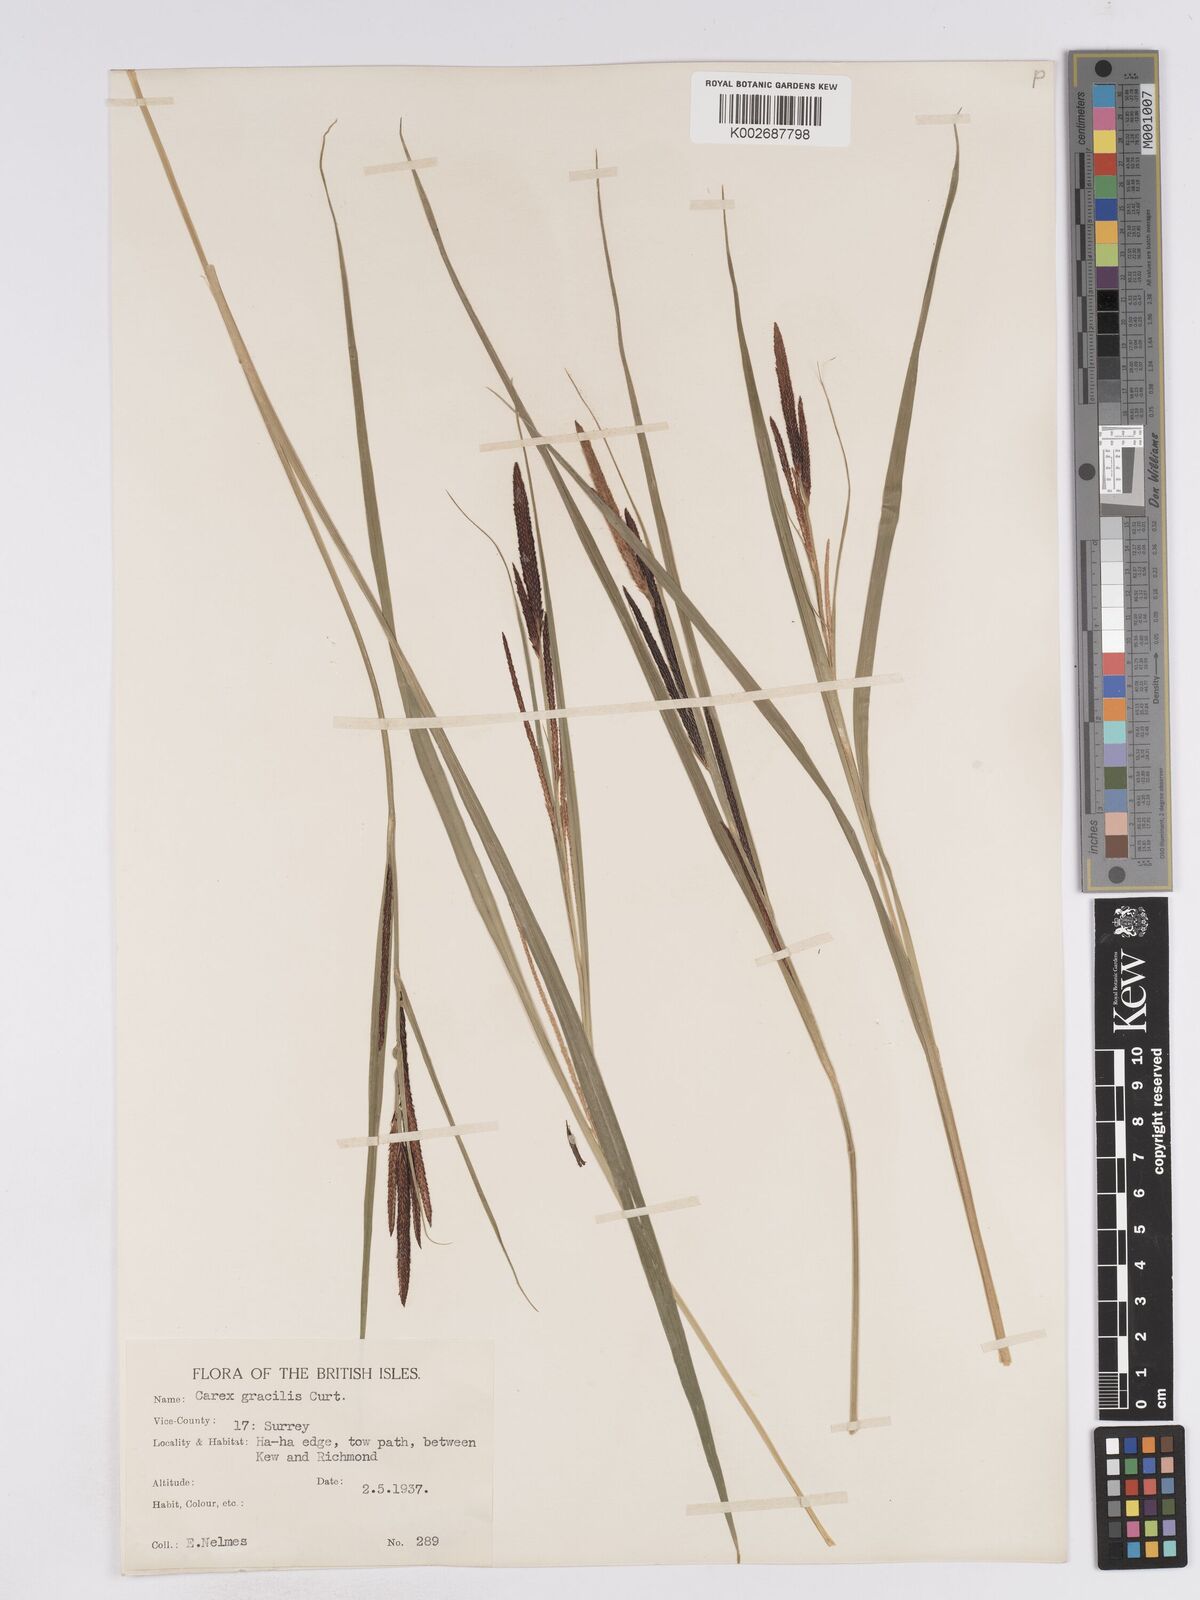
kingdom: Plantae
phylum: Tracheophyta
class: Liliopsida
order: Poales
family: Cyperaceae
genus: Carex
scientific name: Carex acuta
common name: Slender tufted-sedge
